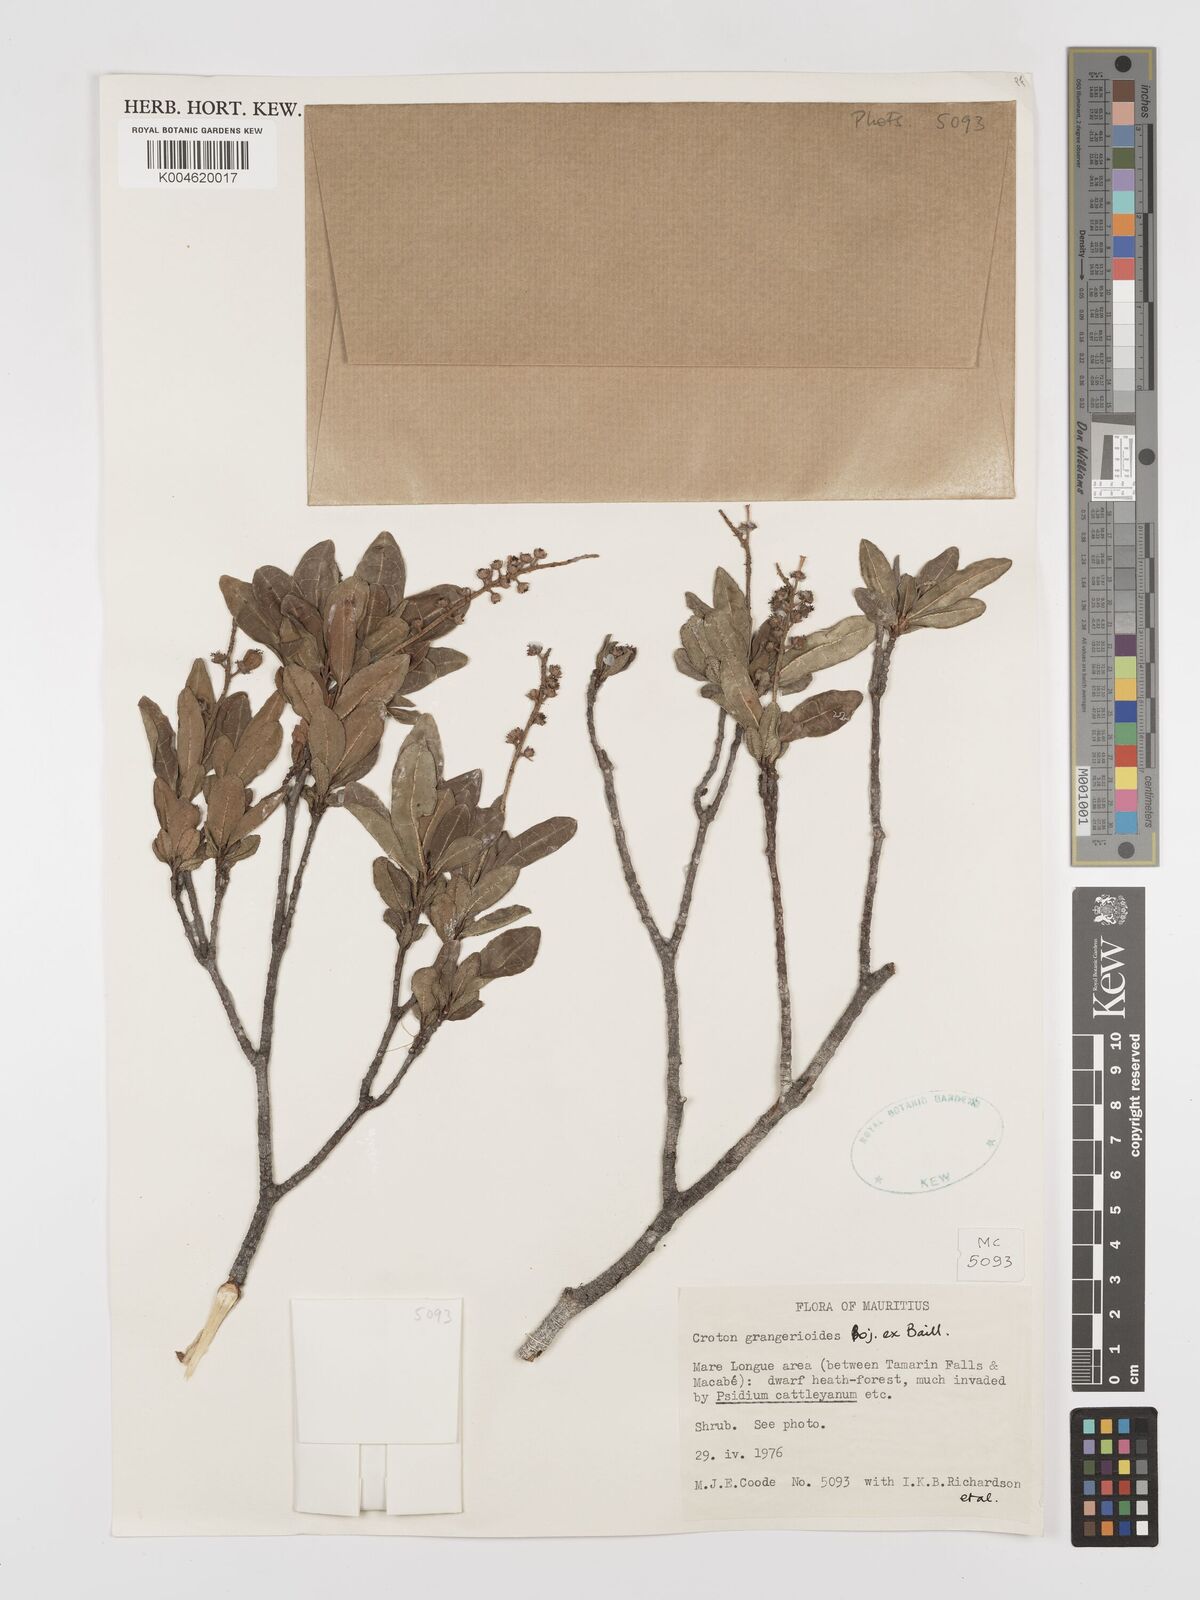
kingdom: Plantae
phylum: Tracheophyta
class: Magnoliopsida
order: Malpighiales
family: Euphorbiaceae
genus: Croton
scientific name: Croton grangerioides
